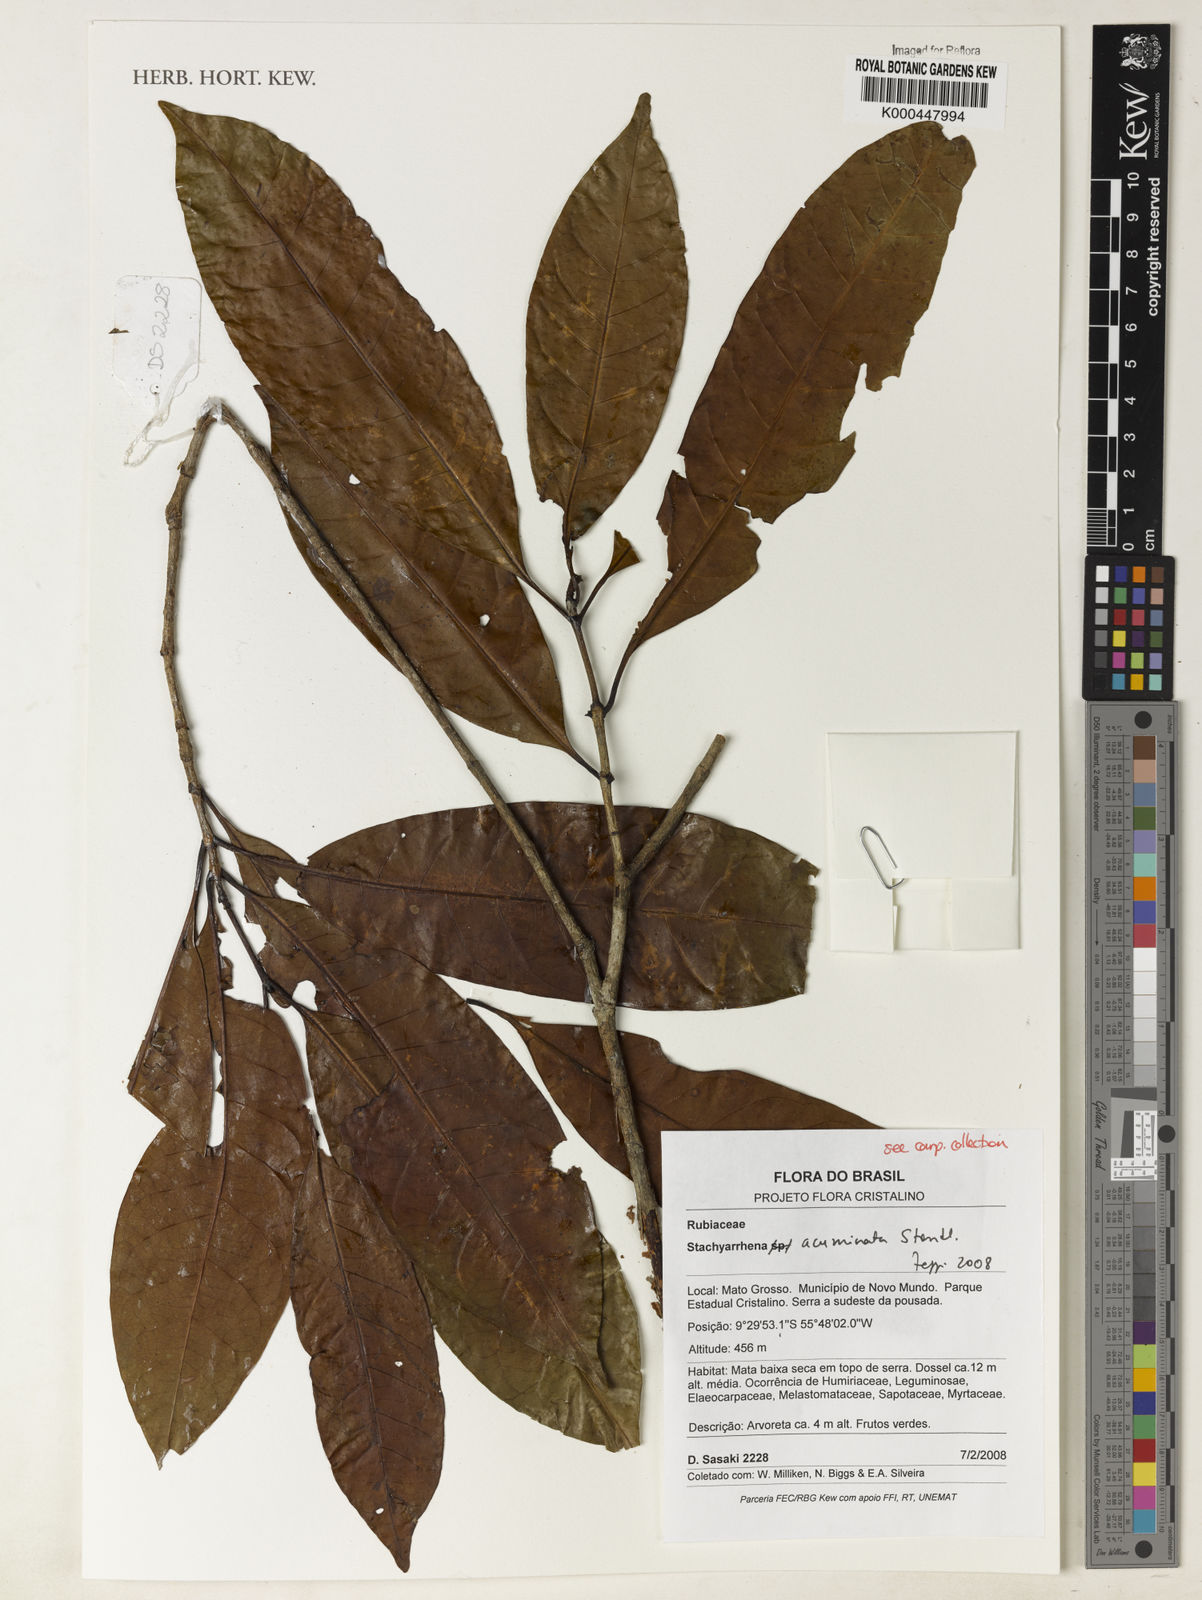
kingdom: Plantae
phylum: Tracheophyta
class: Magnoliopsida
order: Gentianales
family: Rubiaceae
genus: Stachyarrhena
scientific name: Stachyarrhena acuminata
